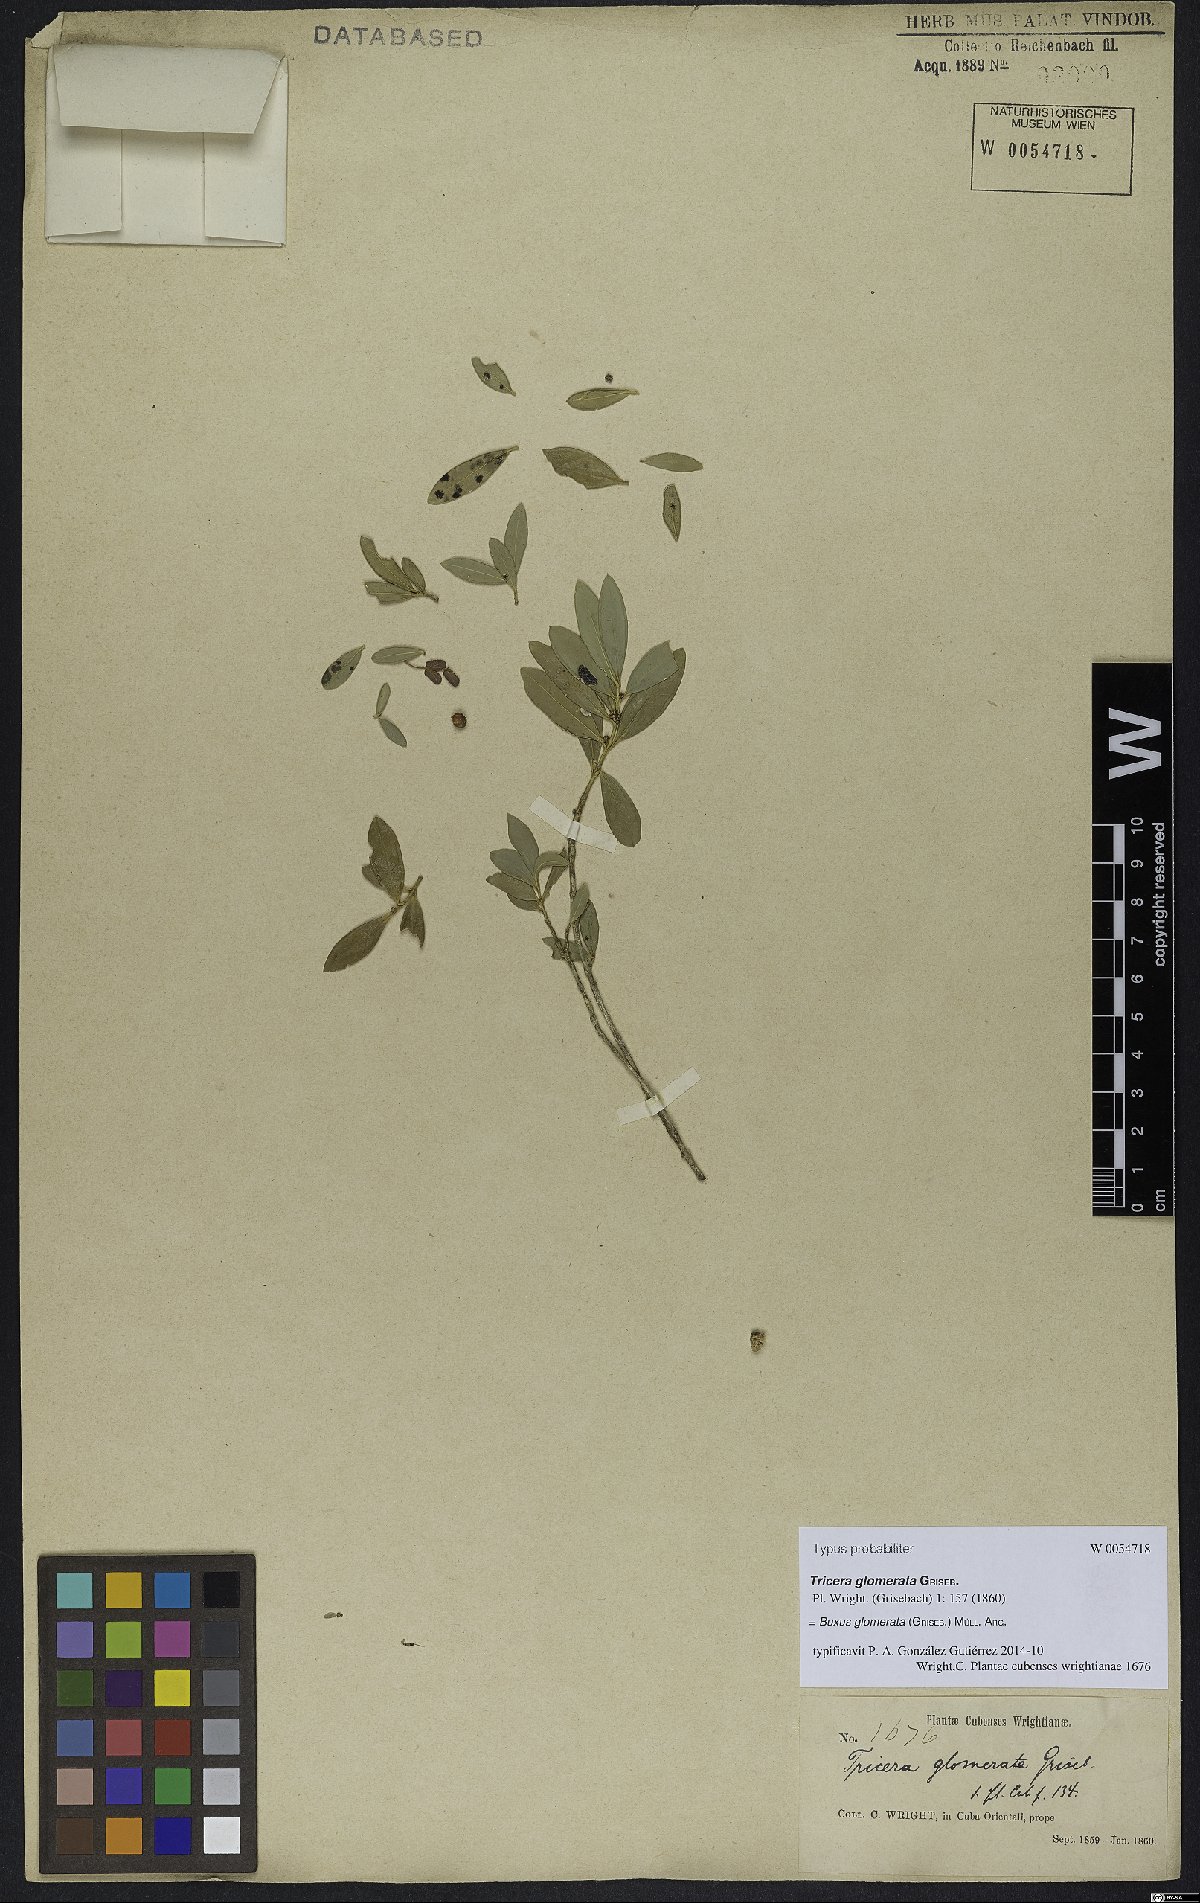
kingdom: Plantae
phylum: Tracheophyta
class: Magnoliopsida
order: Buxales
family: Buxaceae
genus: Buxus
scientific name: Buxus glomerata
